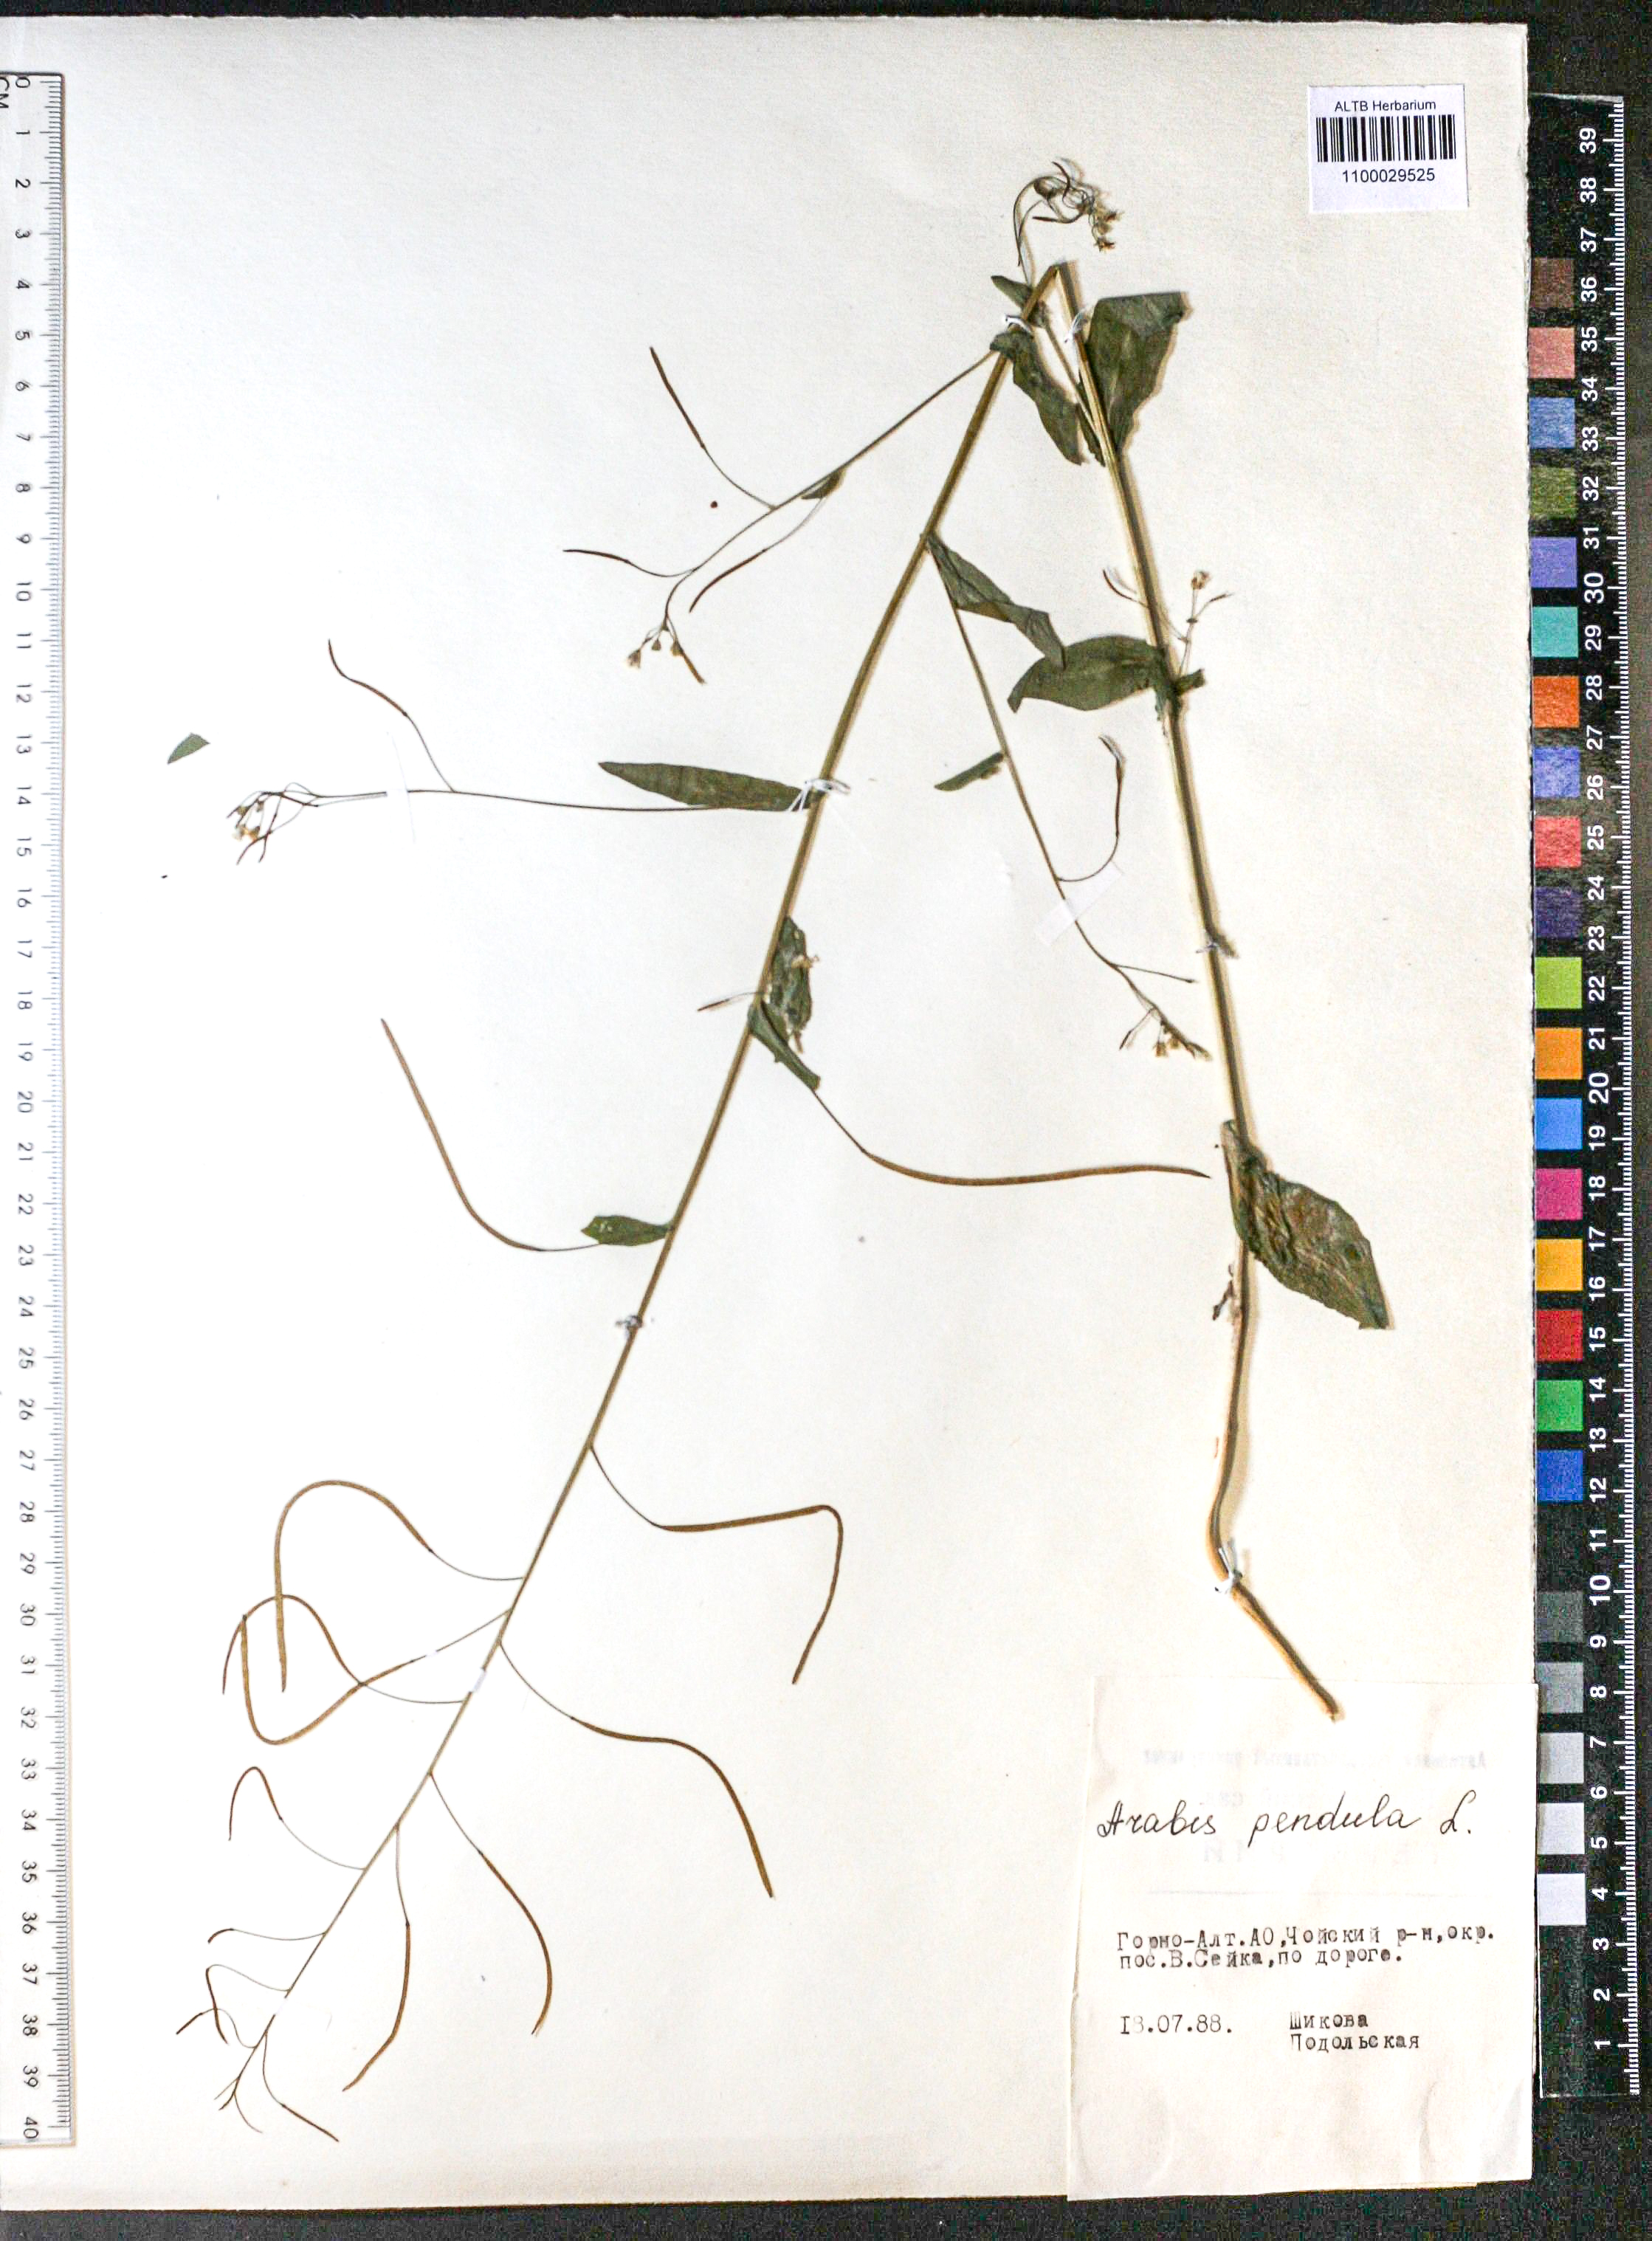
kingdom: Plantae
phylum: Tracheophyta
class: Magnoliopsida
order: Brassicales
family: Brassicaceae
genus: Catolobus
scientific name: Catolobus pendulus
